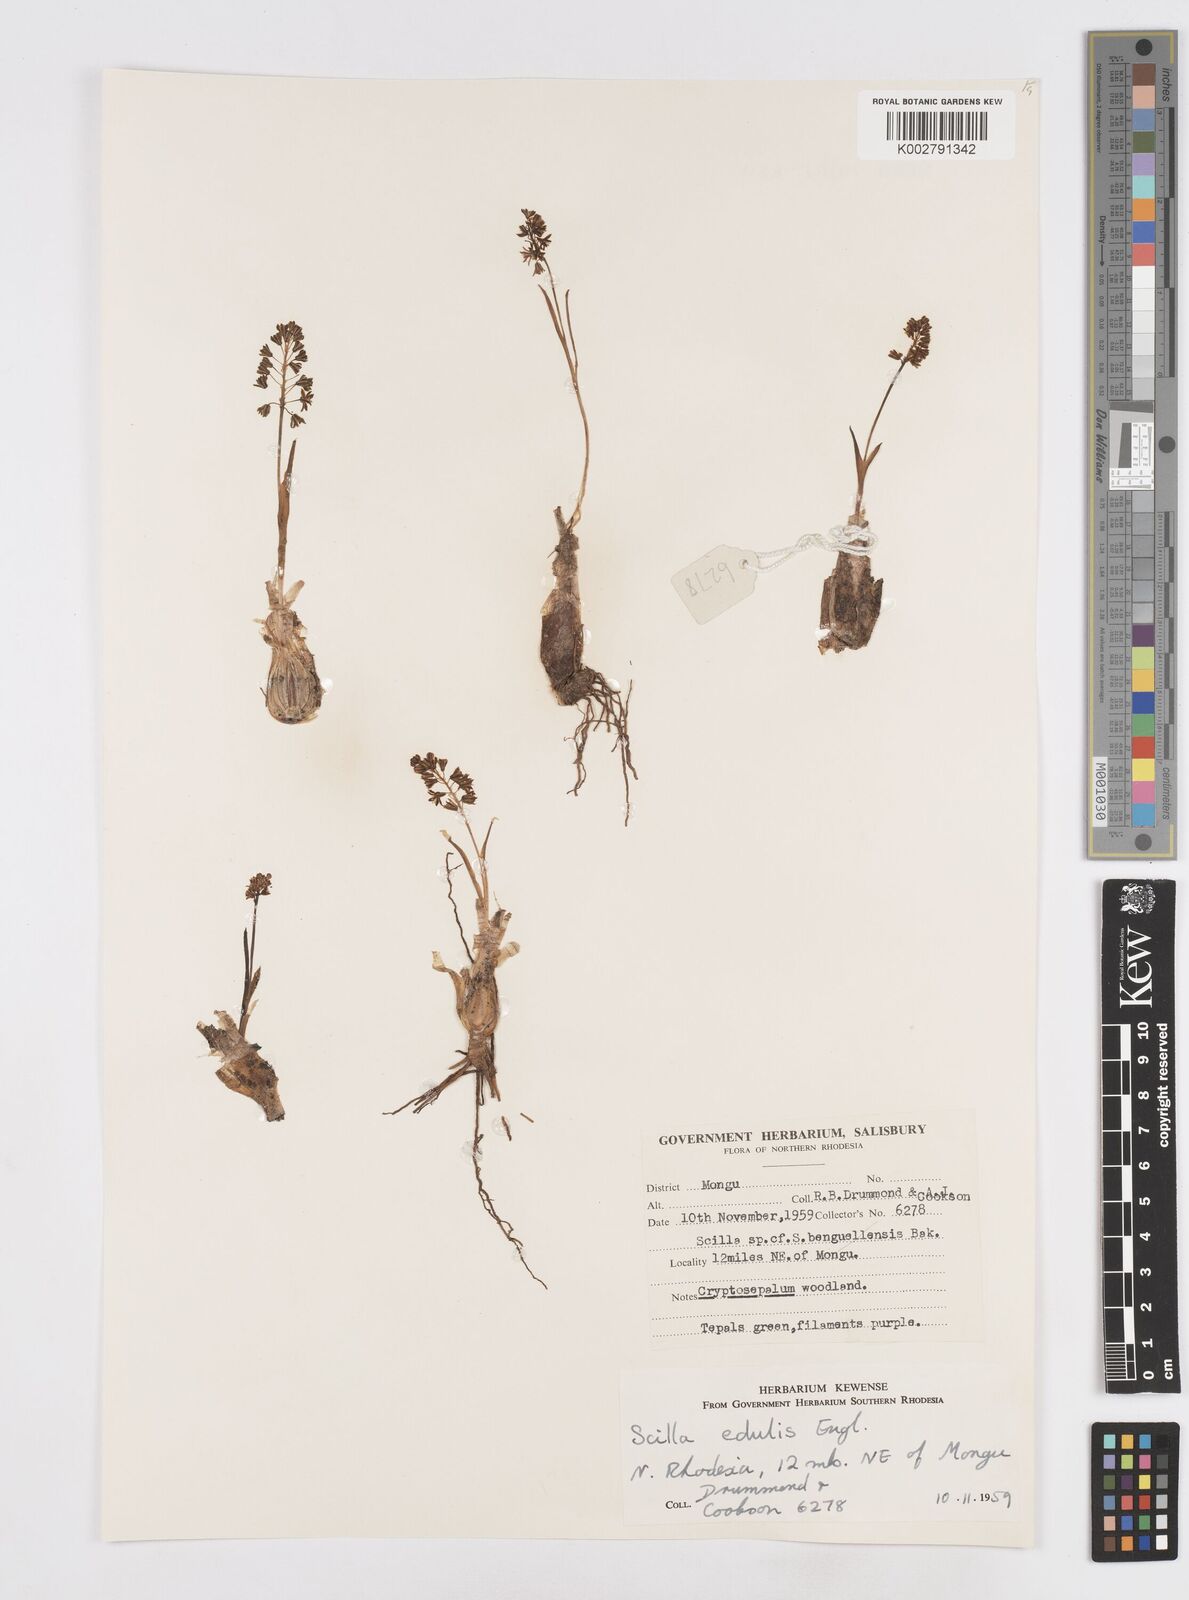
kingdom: Plantae
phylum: Tracheophyta
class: Liliopsida
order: Asparagales
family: Asparagaceae
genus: Ledebouria
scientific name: Ledebouria edulis
